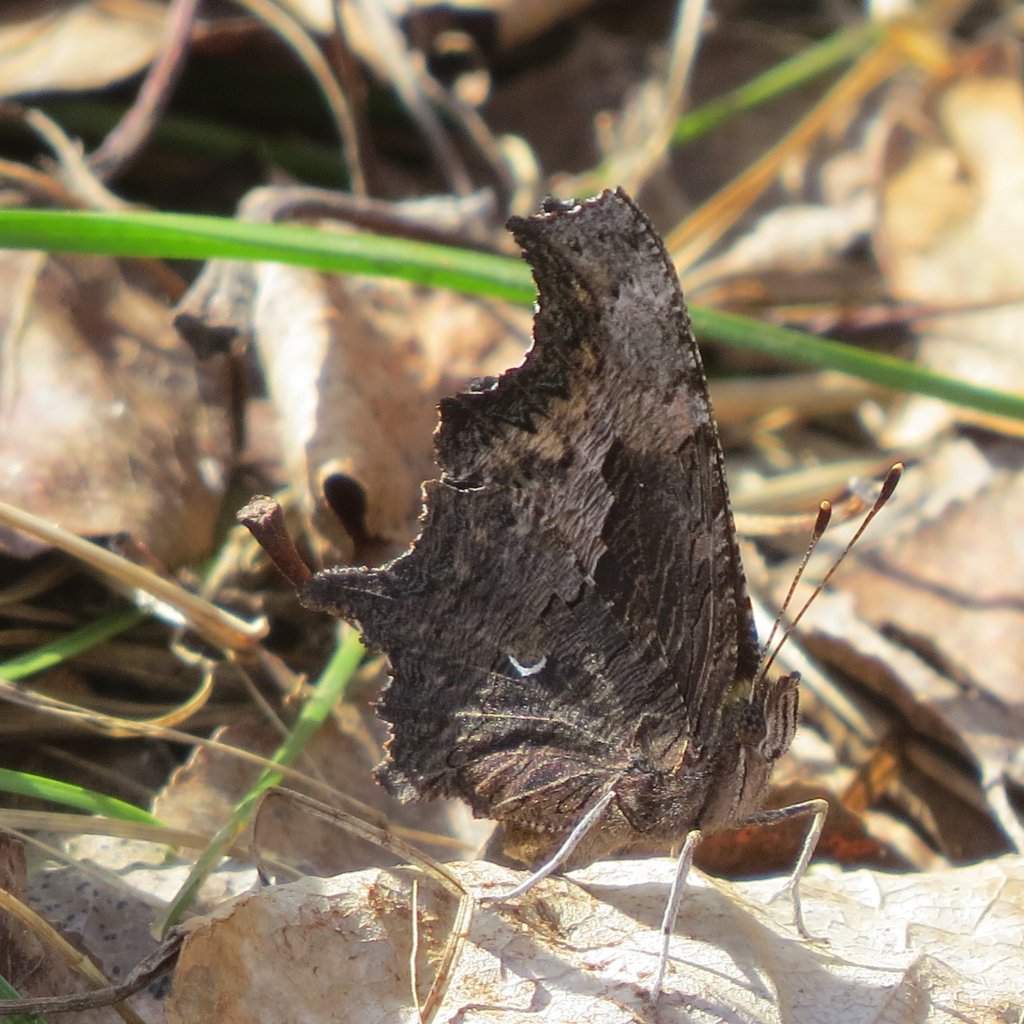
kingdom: Animalia
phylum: Arthropoda
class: Insecta
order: Lepidoptera
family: Nymphalidae
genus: Polygonia
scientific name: Polygonia gracilis
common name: Hoary Comma
